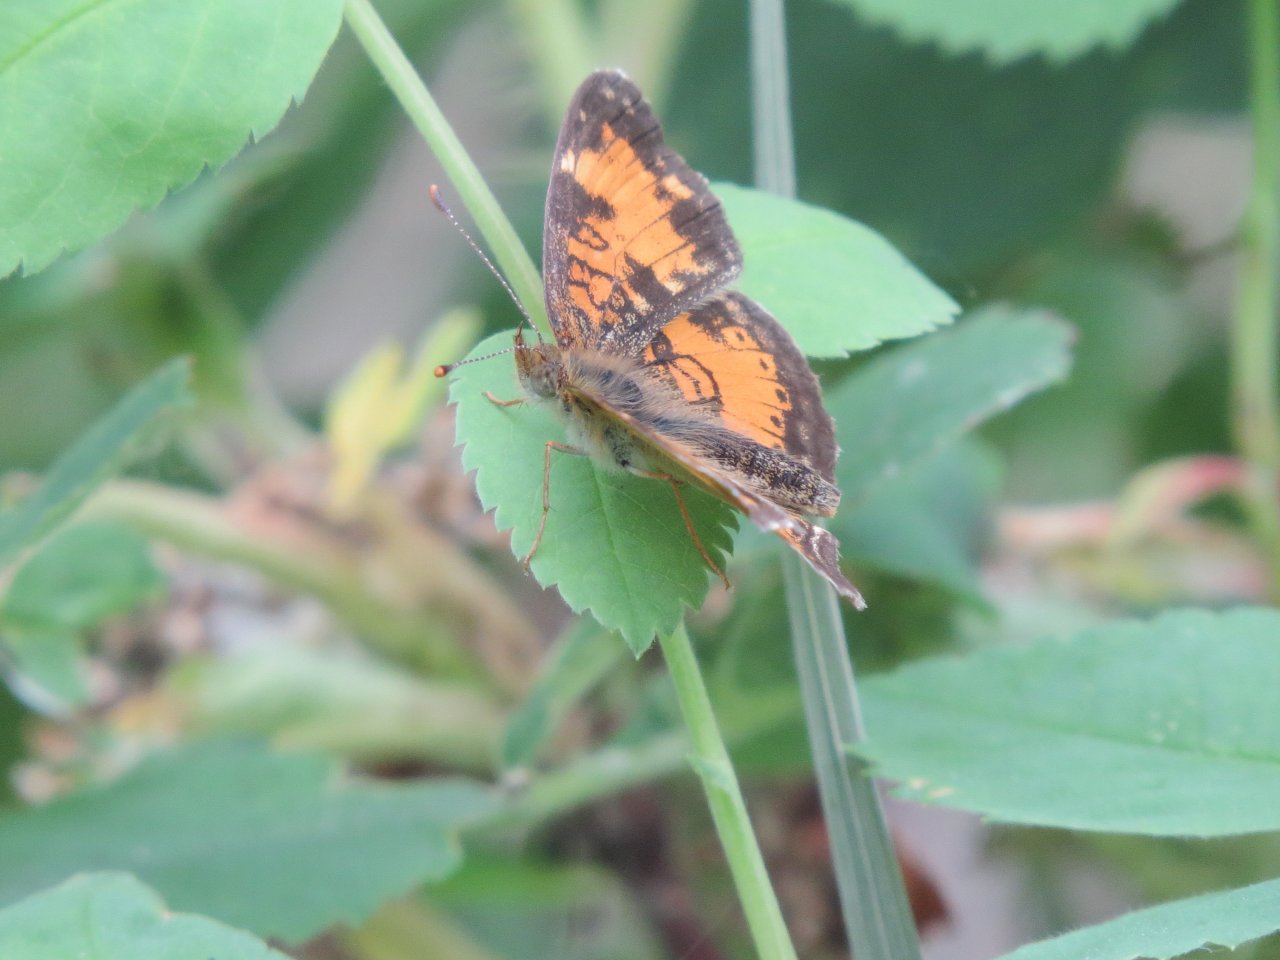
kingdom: Animalia
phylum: Arthropoda
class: Insecta
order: Lepidoptera
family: Nymphalidae
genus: Phyciodes
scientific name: Phyciodes tharos
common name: Northern Crescent
